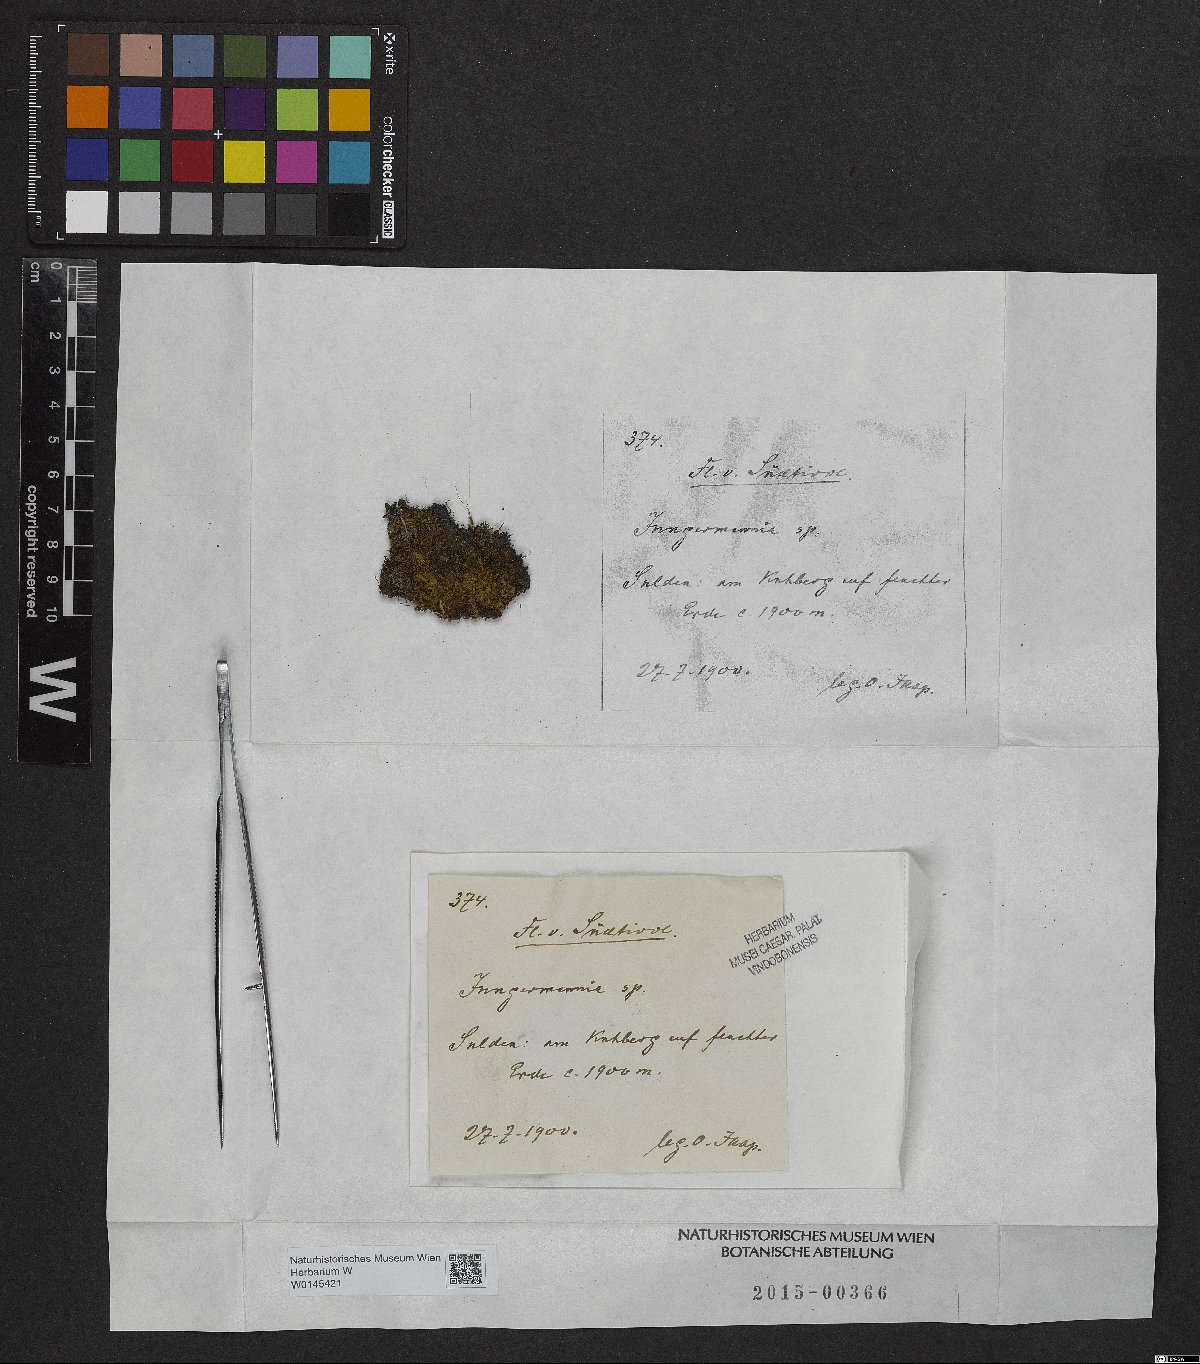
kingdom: Plantae
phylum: Marchantiophyta
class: Jungermanniopsida
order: Jungermanniales
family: Jungermanniaceae
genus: Jungermannia
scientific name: Jungermannia
